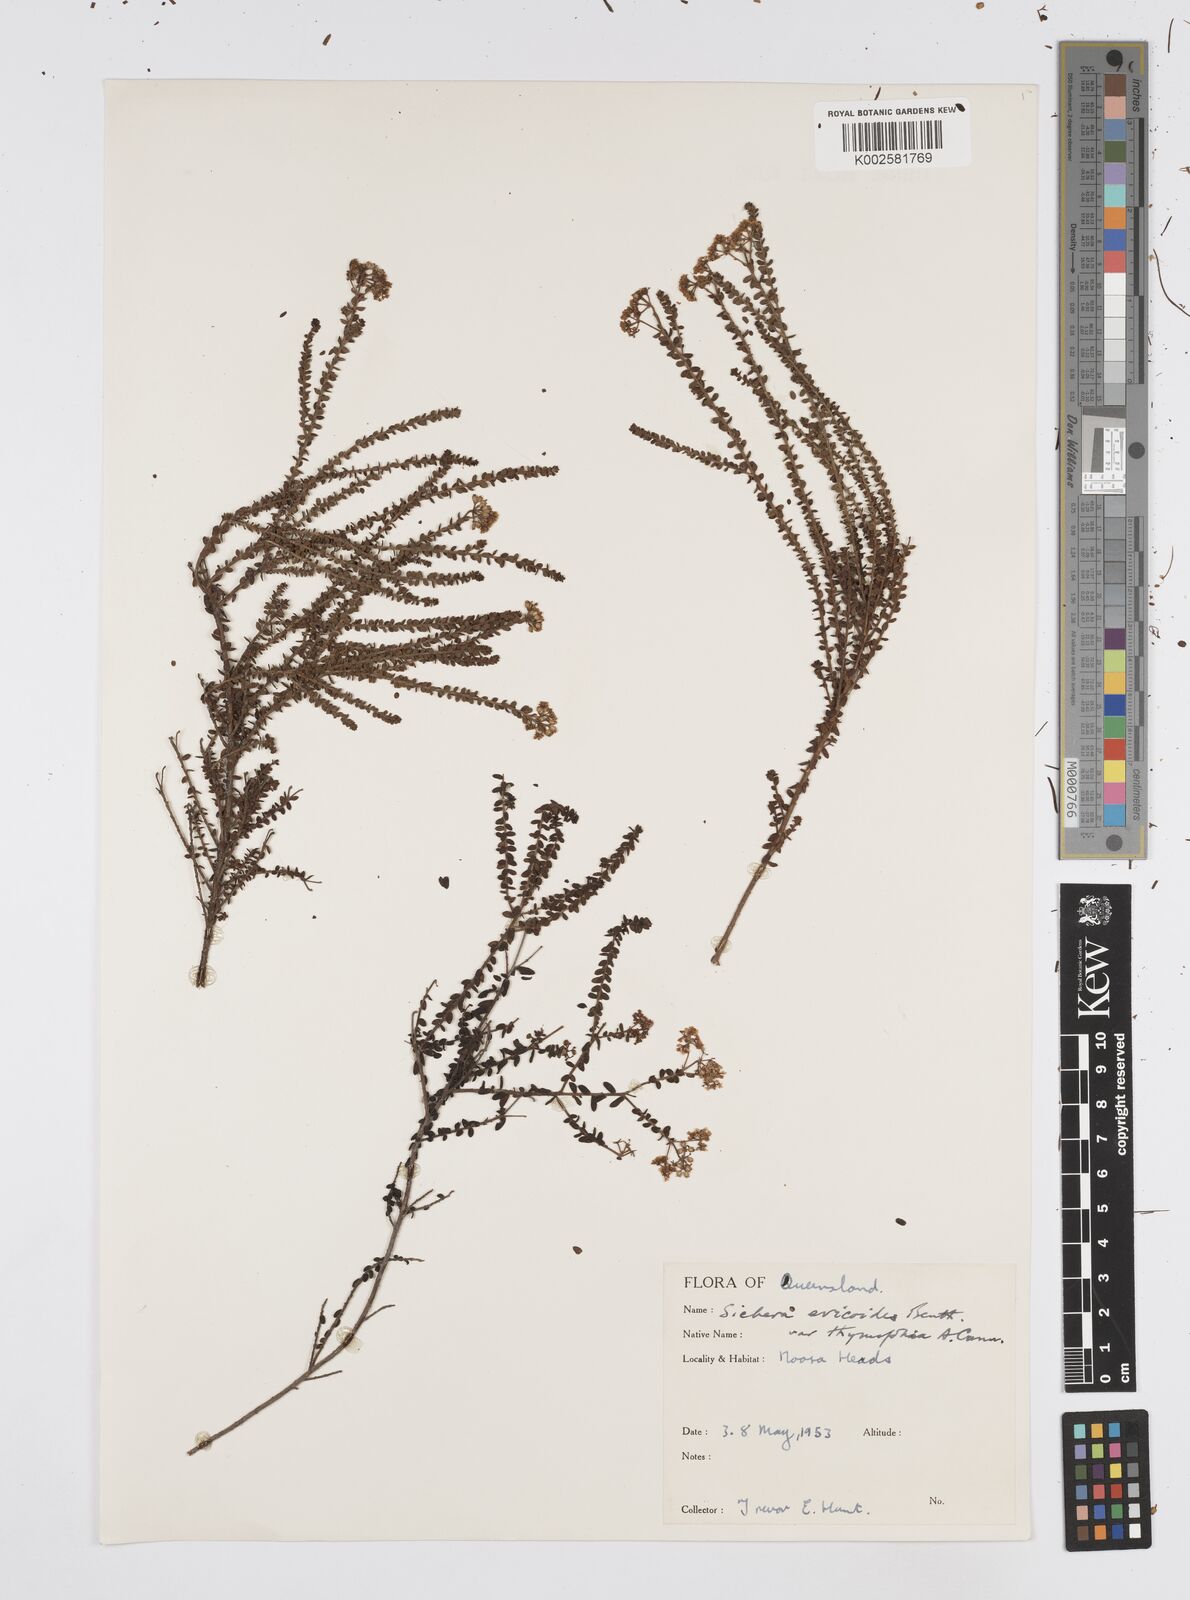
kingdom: Plantae
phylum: Tracheophyta
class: Magnoliopsida
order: Apiales
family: Apiaceae
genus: Platysace
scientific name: Platysace ericoides
